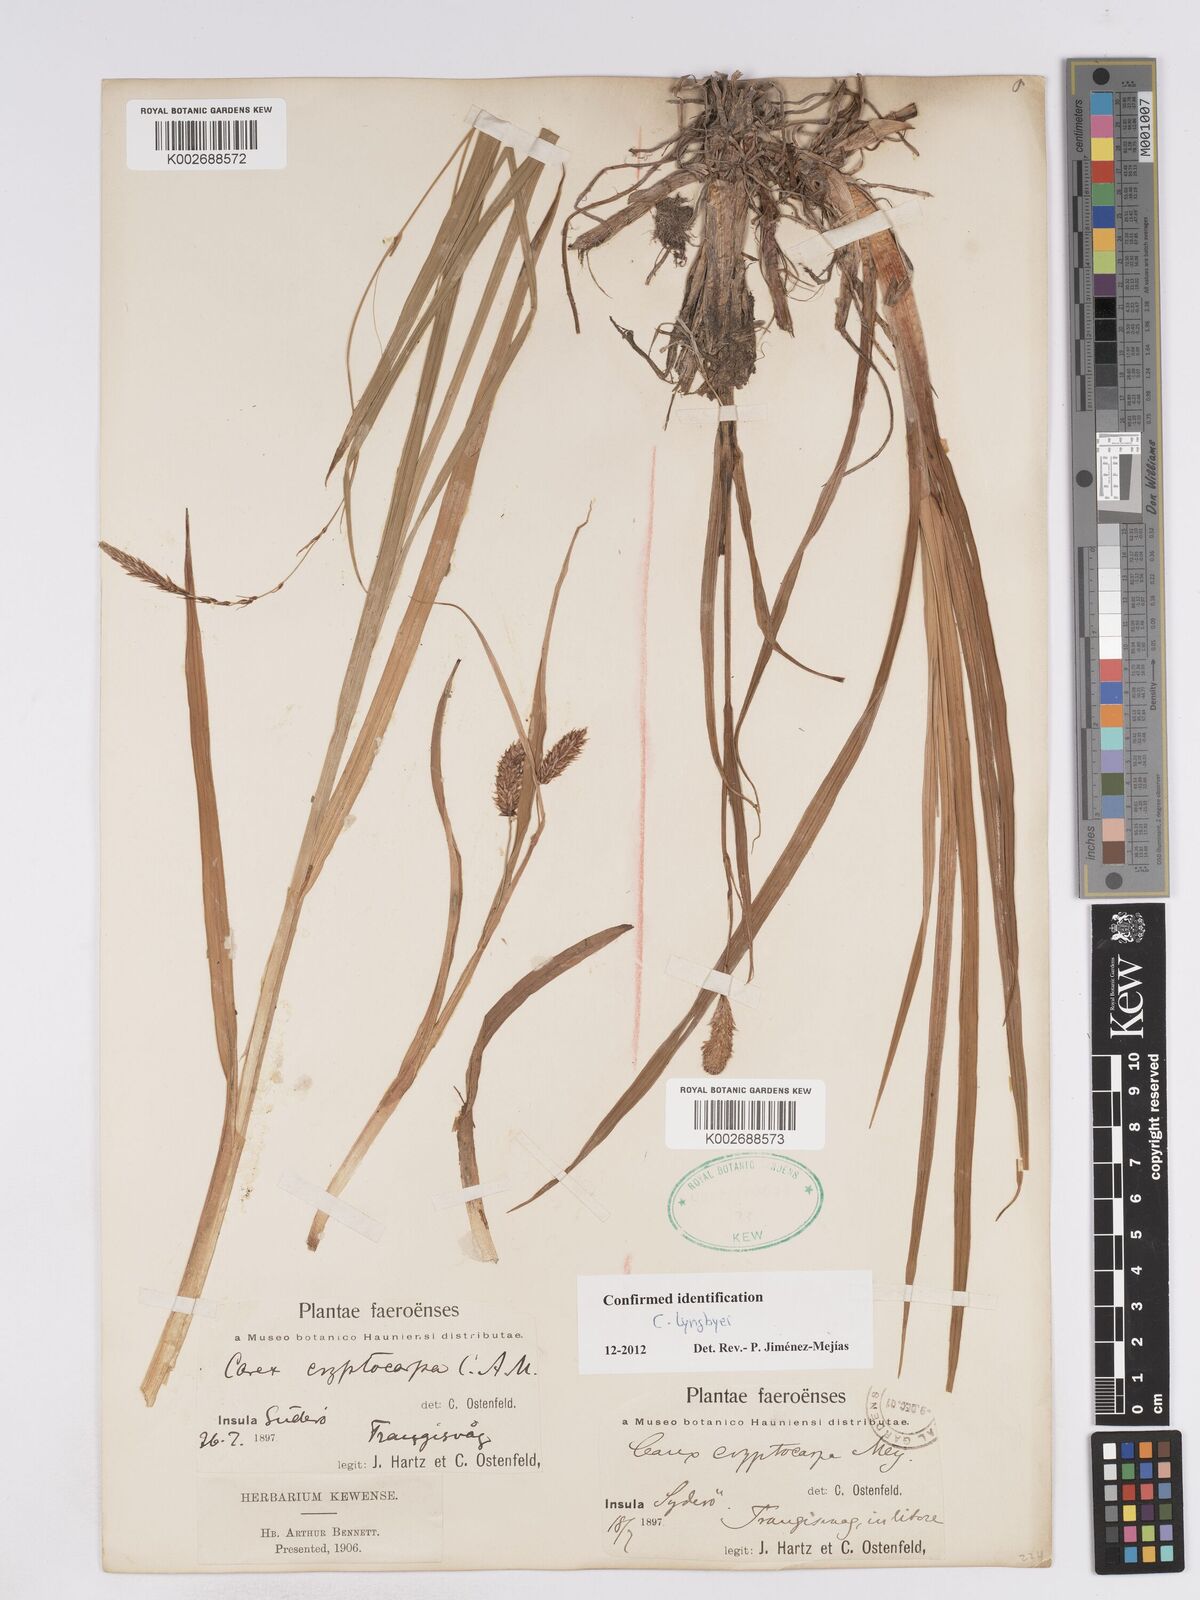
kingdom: Plantae
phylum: Tracheophyta
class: Liliopsida
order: Poales
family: Cyperaceae
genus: Carex
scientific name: Carex lyngbyei
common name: Lyngbye's sedge
